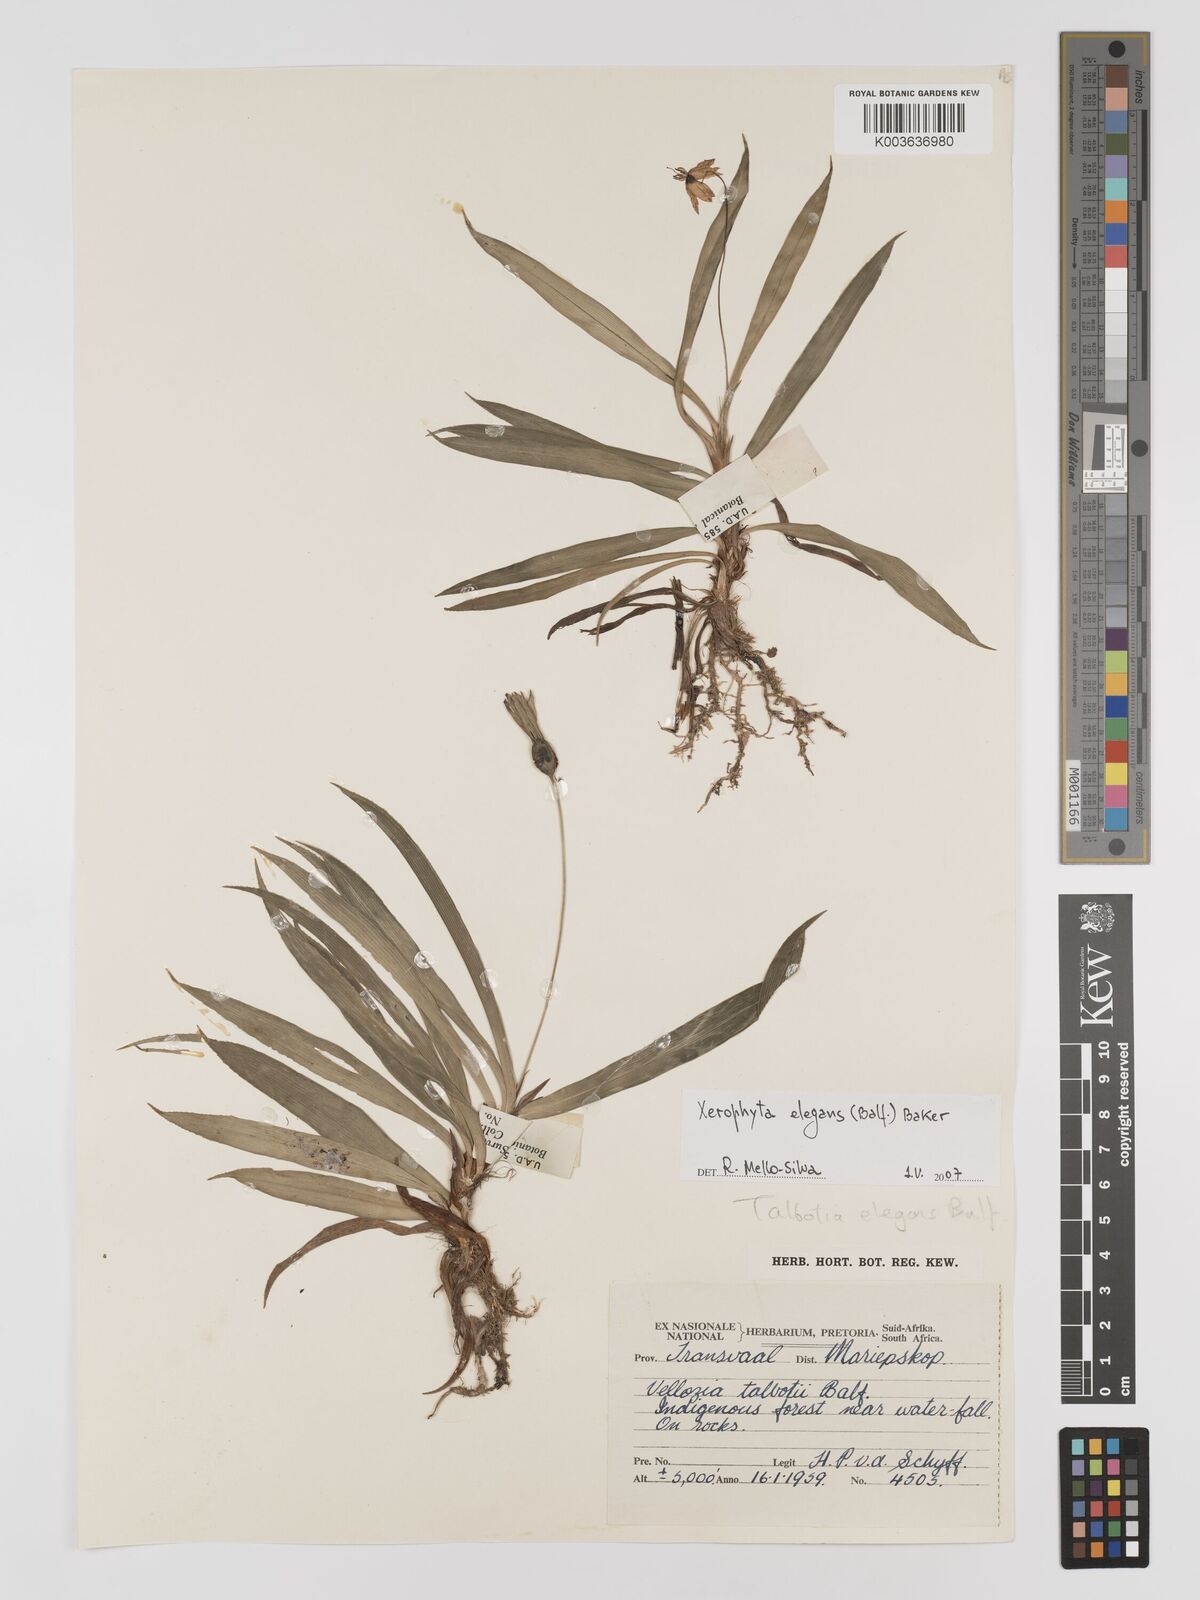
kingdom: Plantae
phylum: Tracheophyta
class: Liliopsida
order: Pandanales
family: Velloziaceae
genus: Xerophyta
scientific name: Xerophyta elegans
